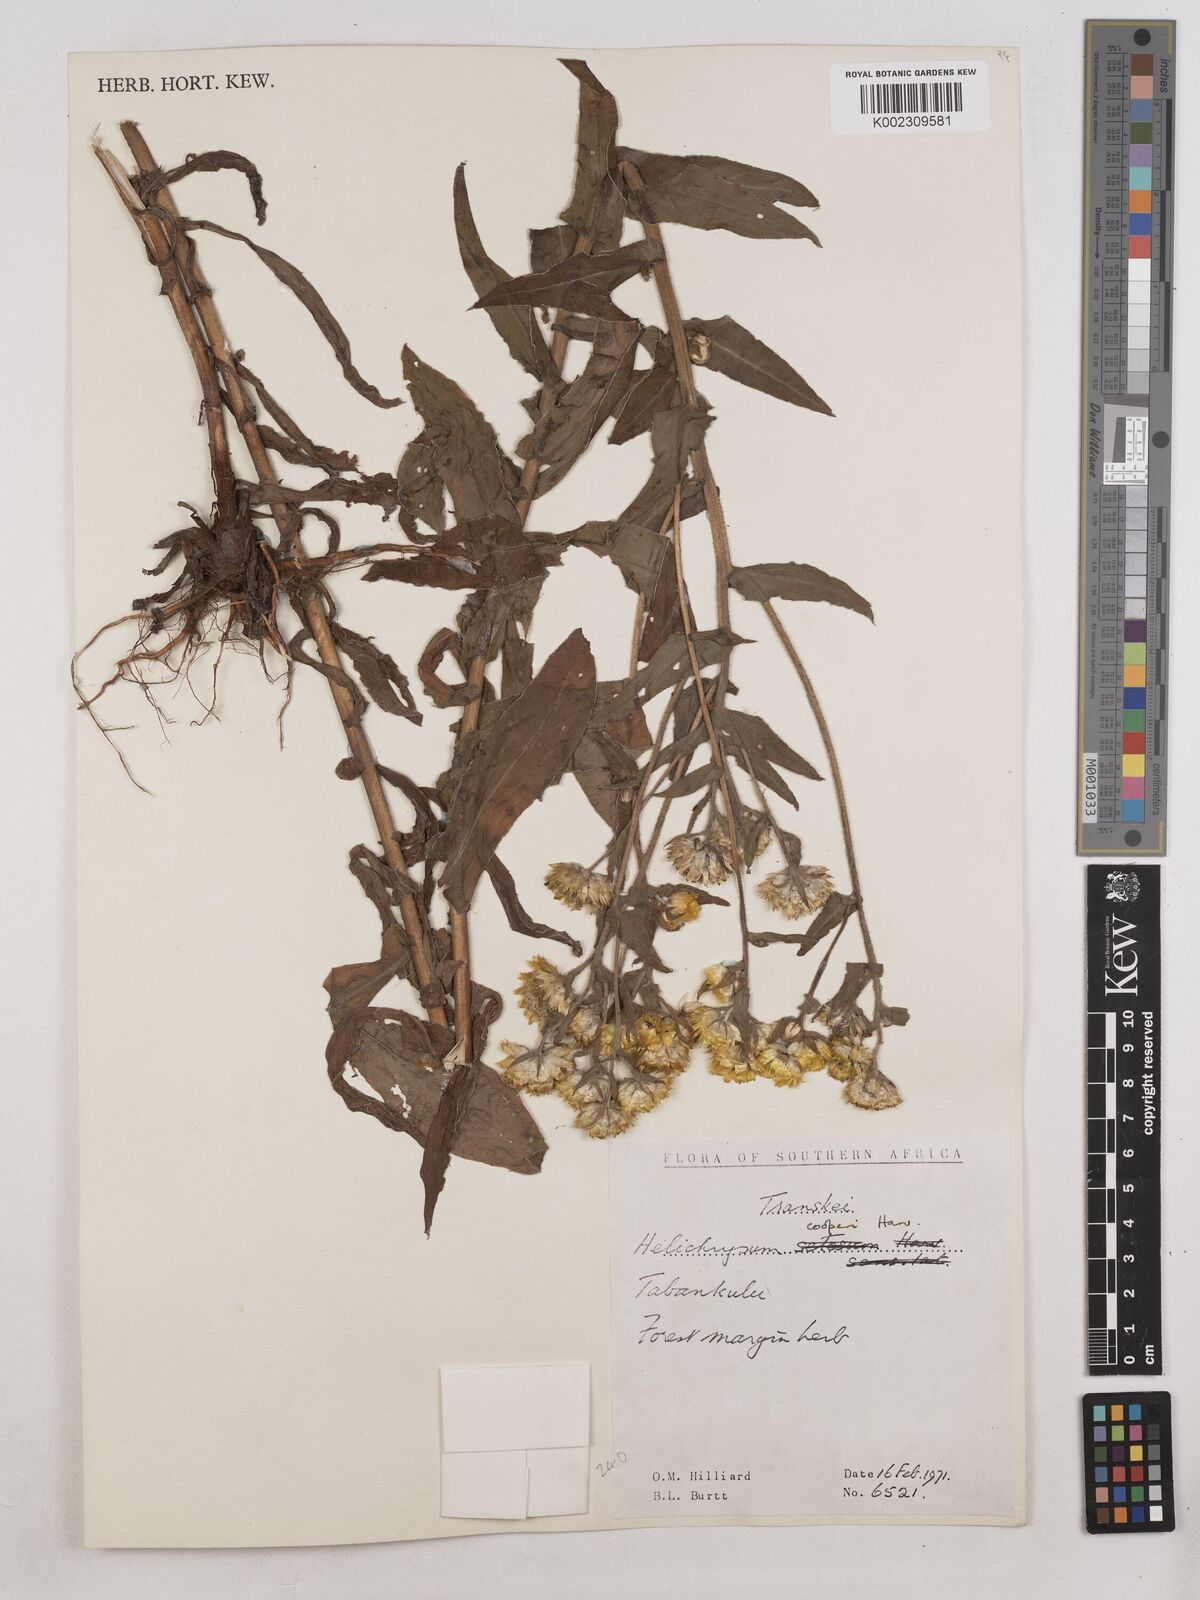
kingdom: Plantae
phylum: Tracheophyta
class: Magnoliopsida
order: Asterales
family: Asteraceae
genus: Helichrysum
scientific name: Helichrysum cooperi
